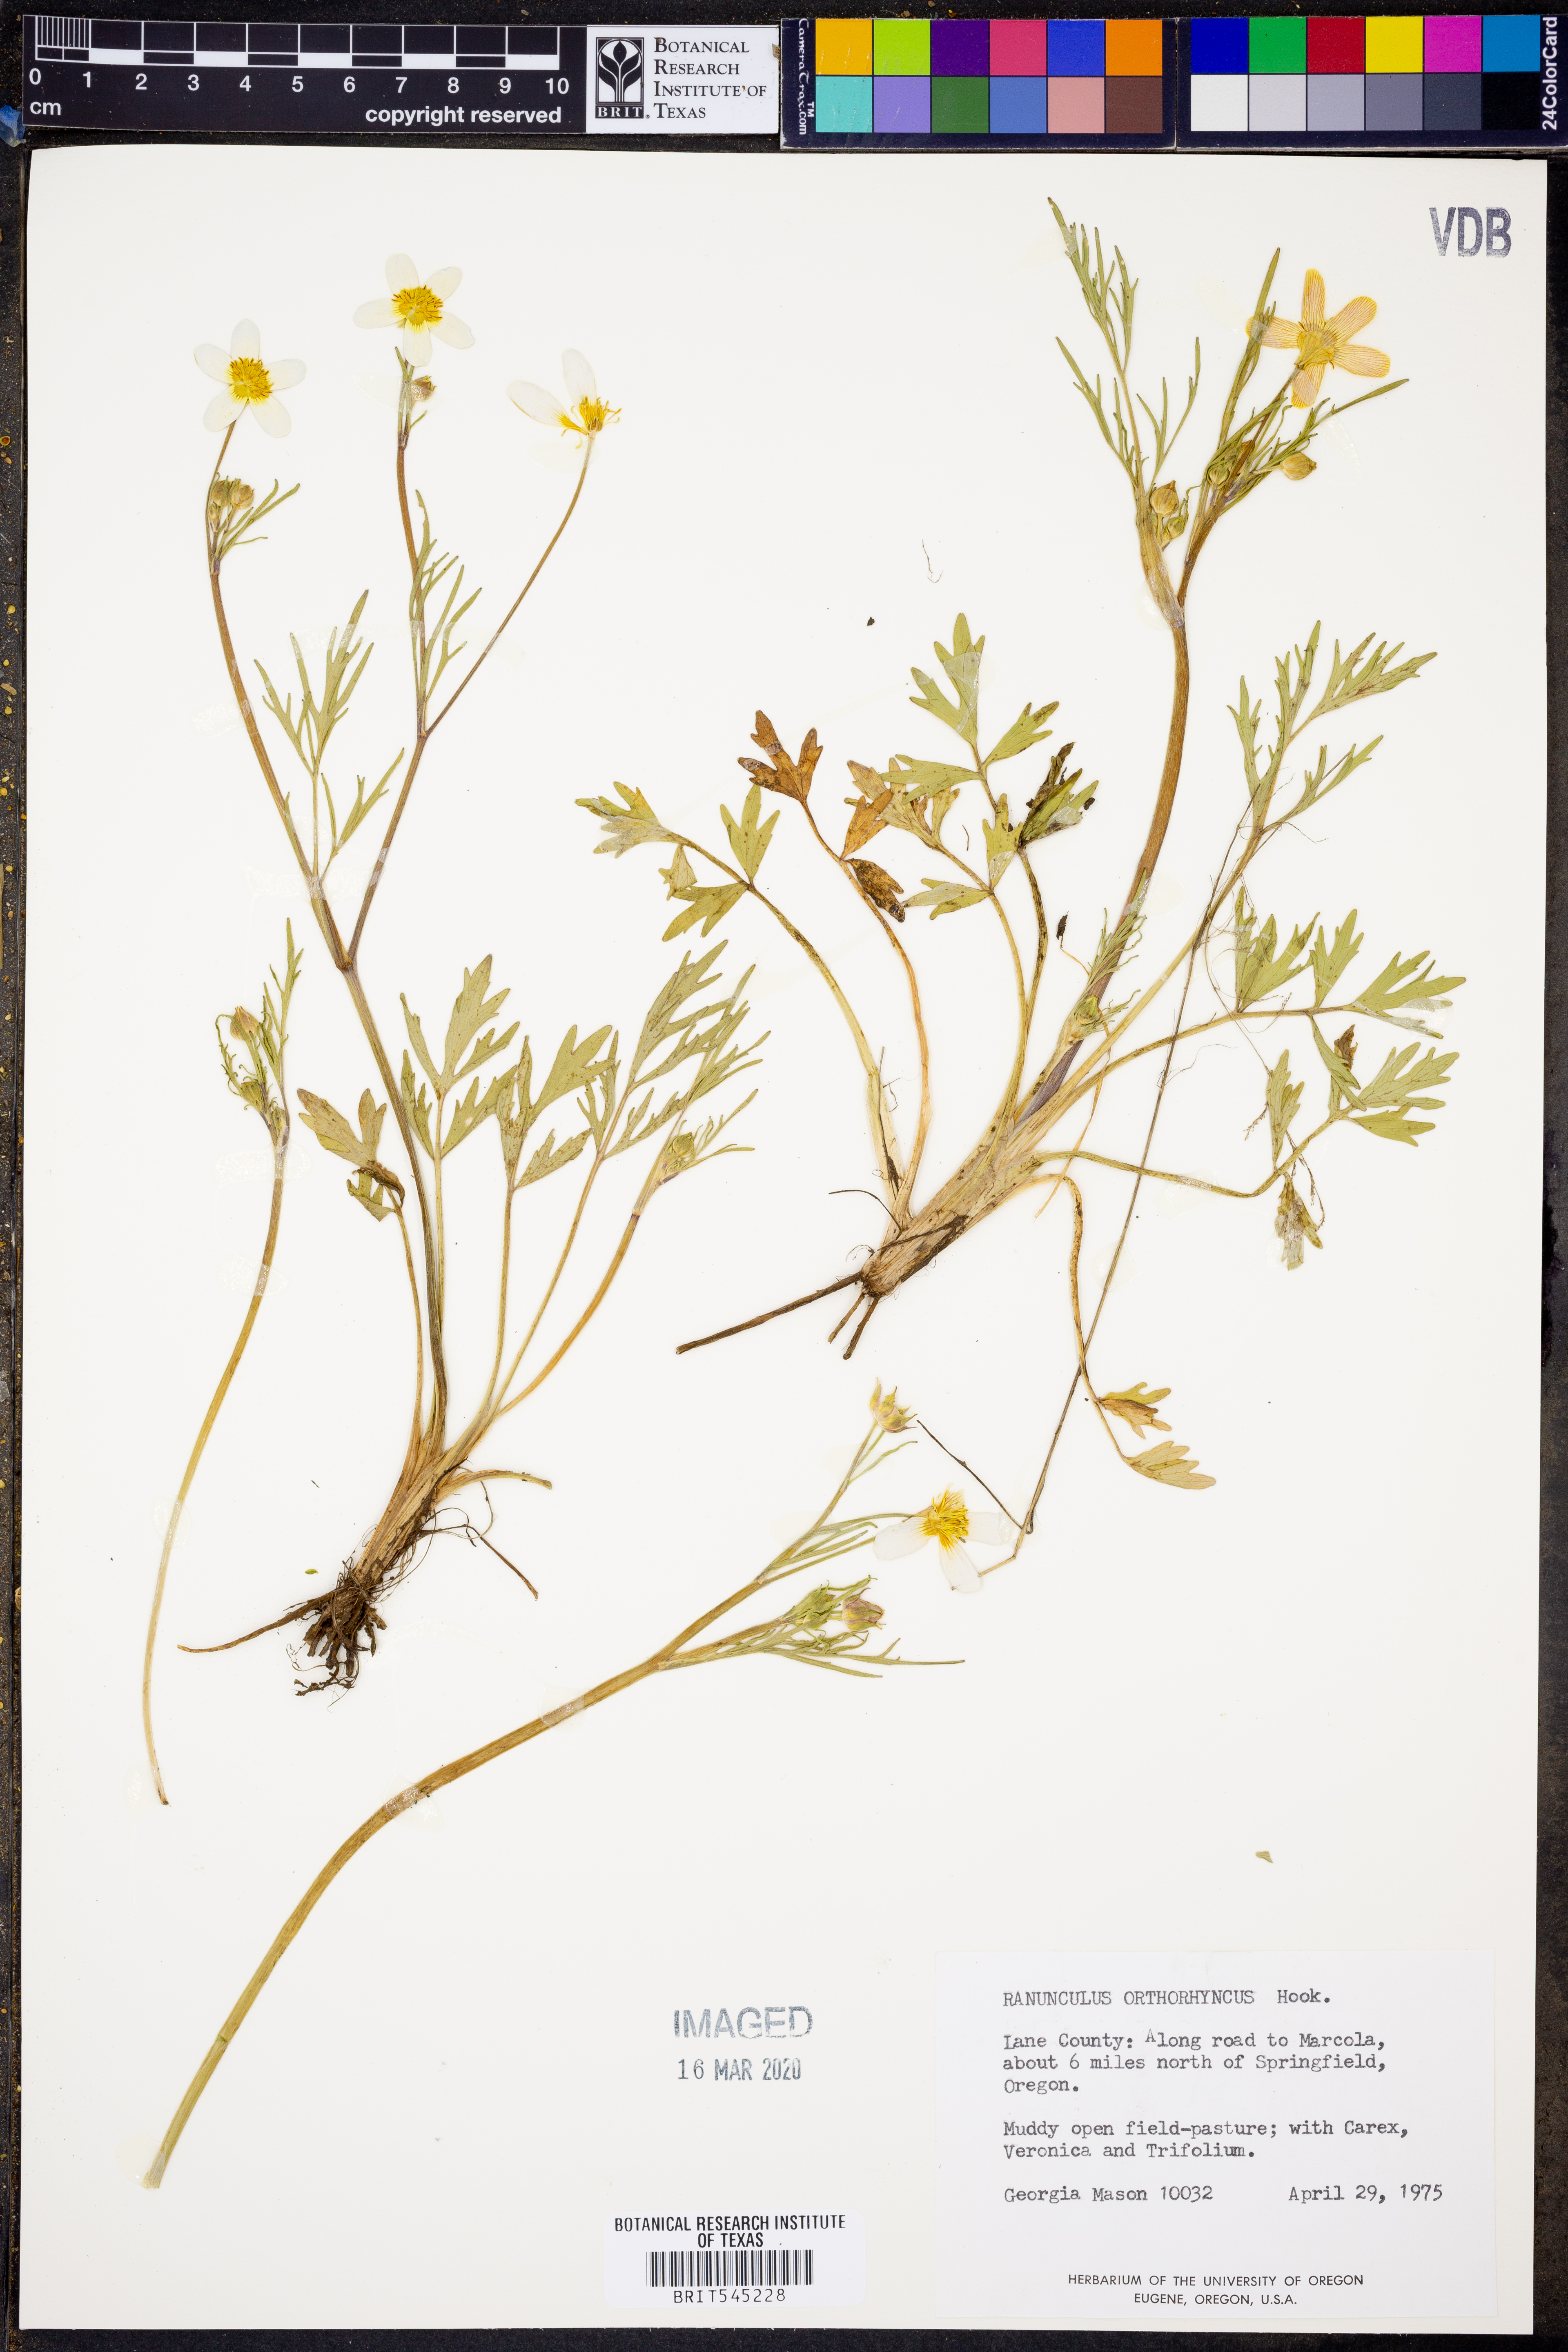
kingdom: Plantae
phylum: Tracheophyta
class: Magnoliopsida
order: Ranunculales
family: Ranunculaceae
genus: Ranunculus
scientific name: Ranunculus orthorhynchus
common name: Straight-beak buttercup
